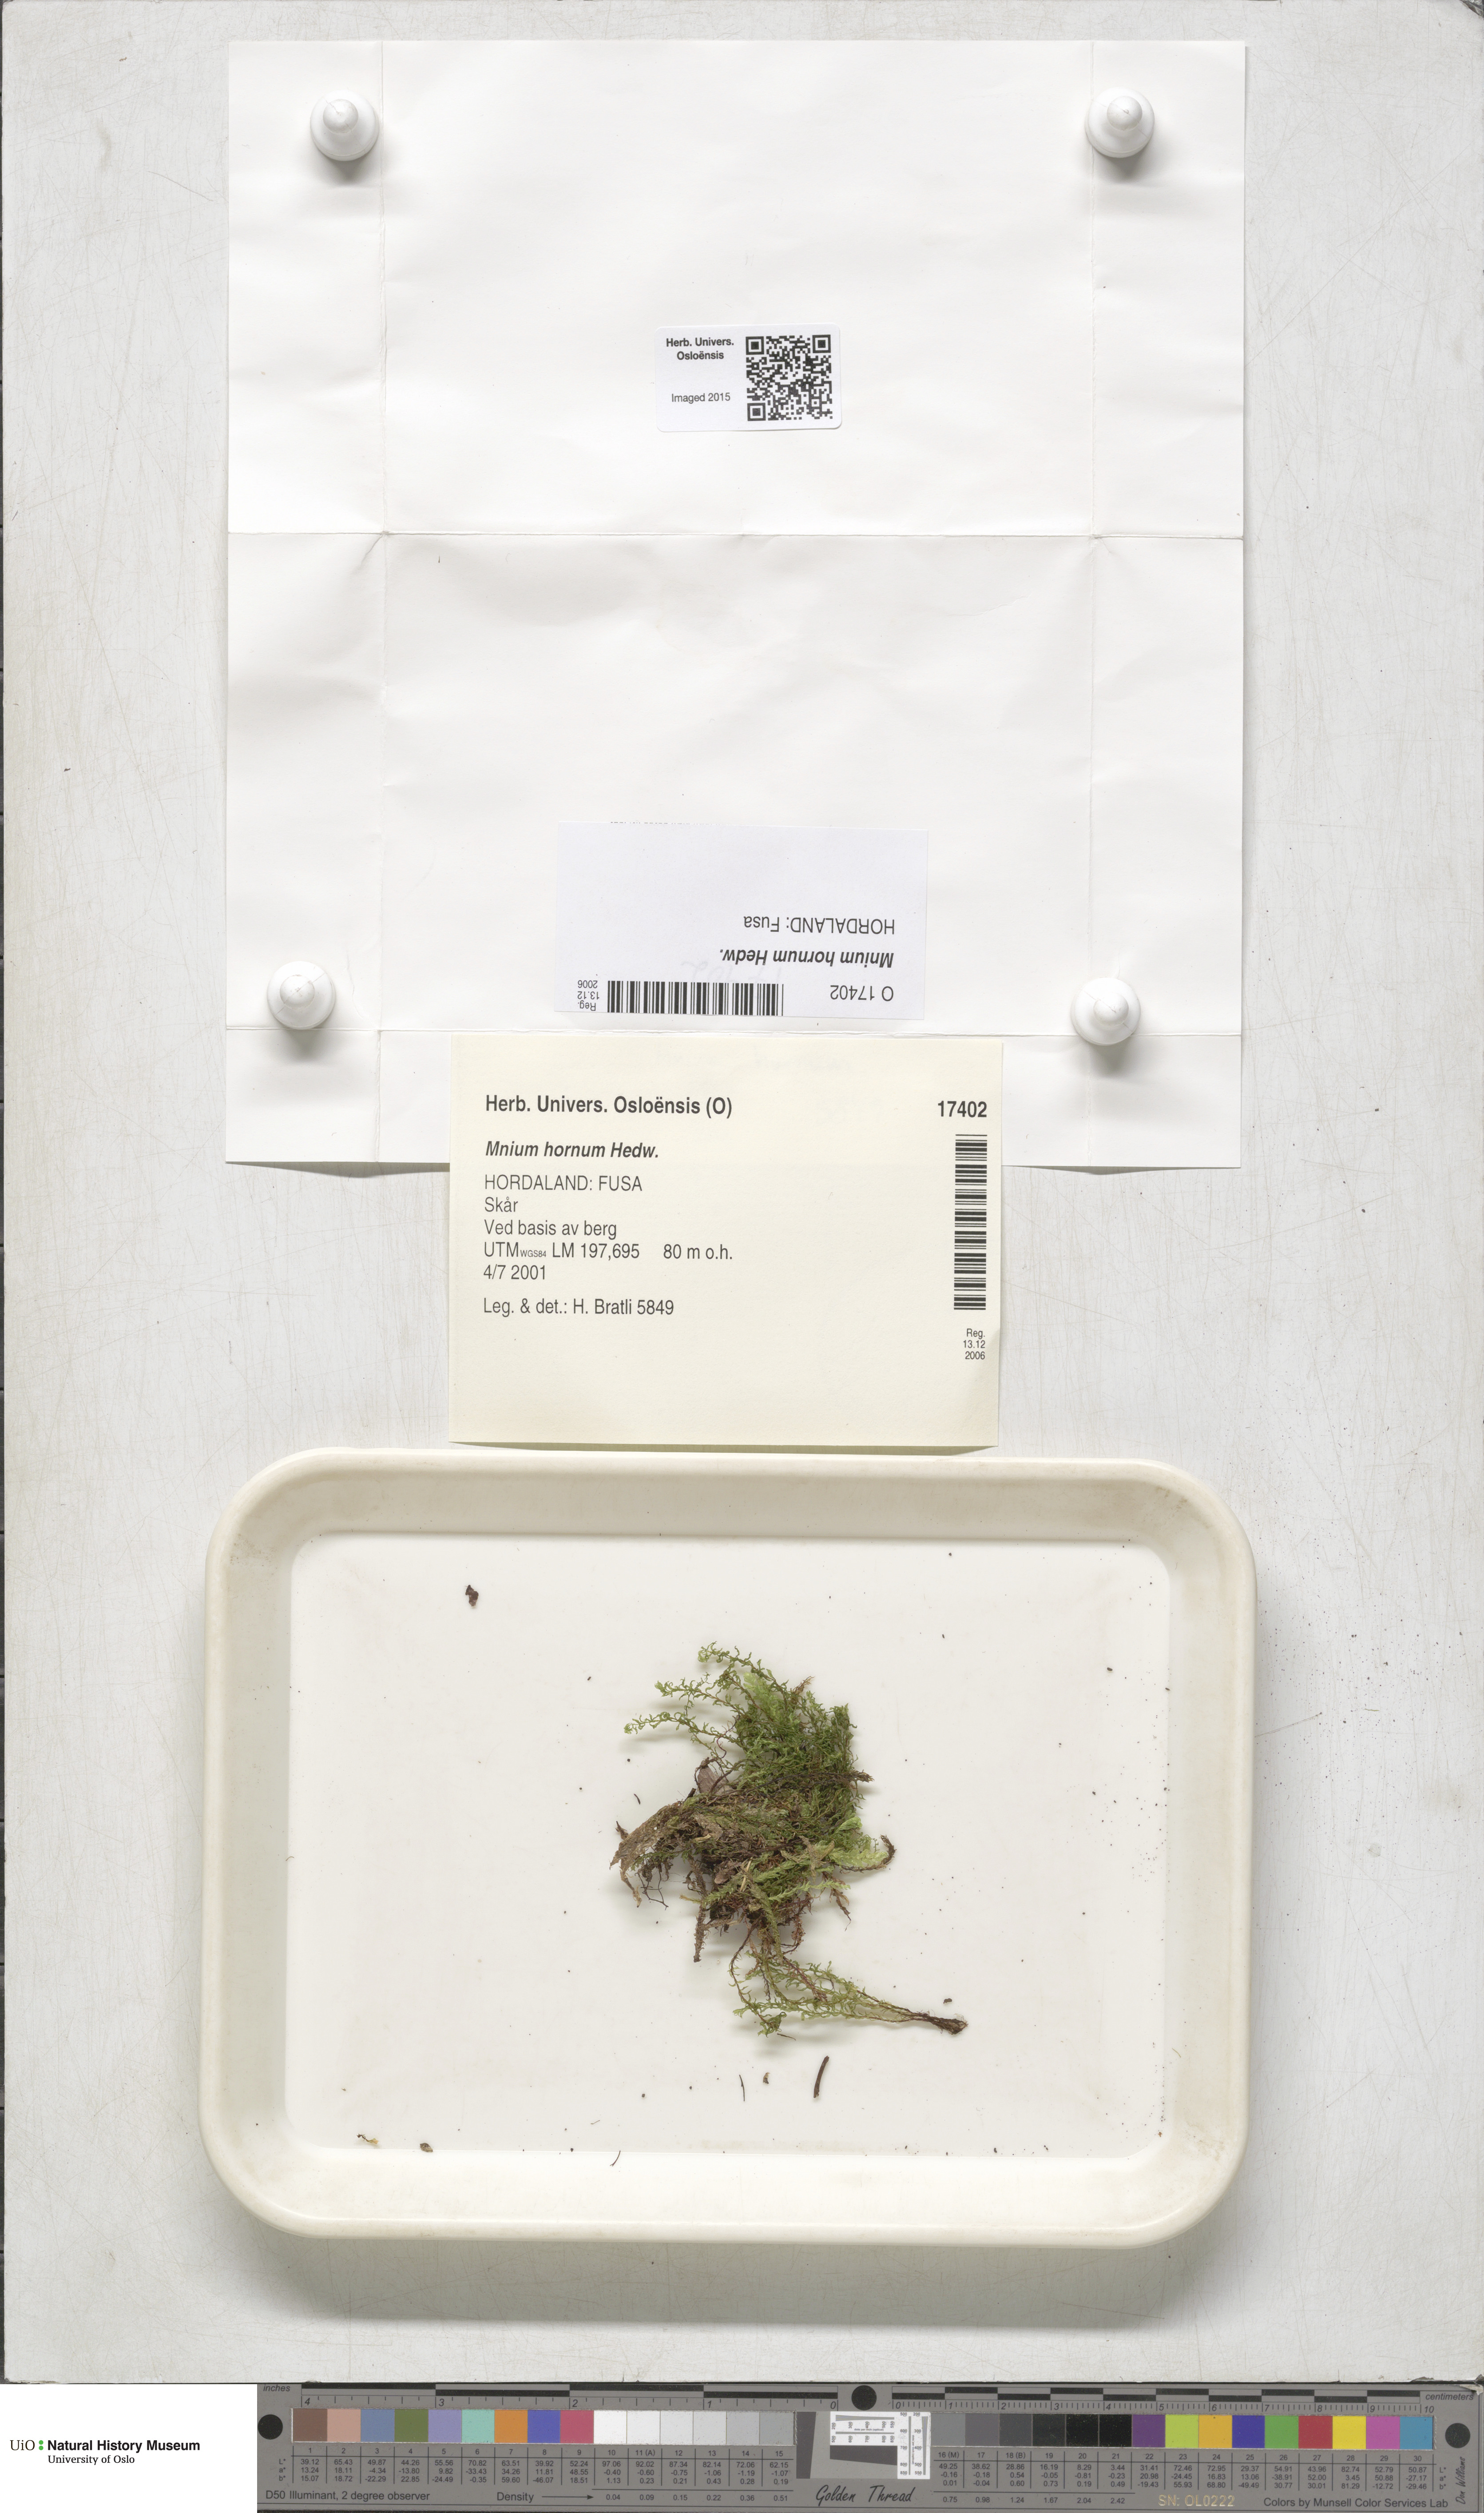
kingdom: Plantae
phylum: Bryophyta
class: Bryopsida
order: Bryales
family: Mniaceae
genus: Mnium
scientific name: Mnium hornum
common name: Swan's-neck leafy moss
